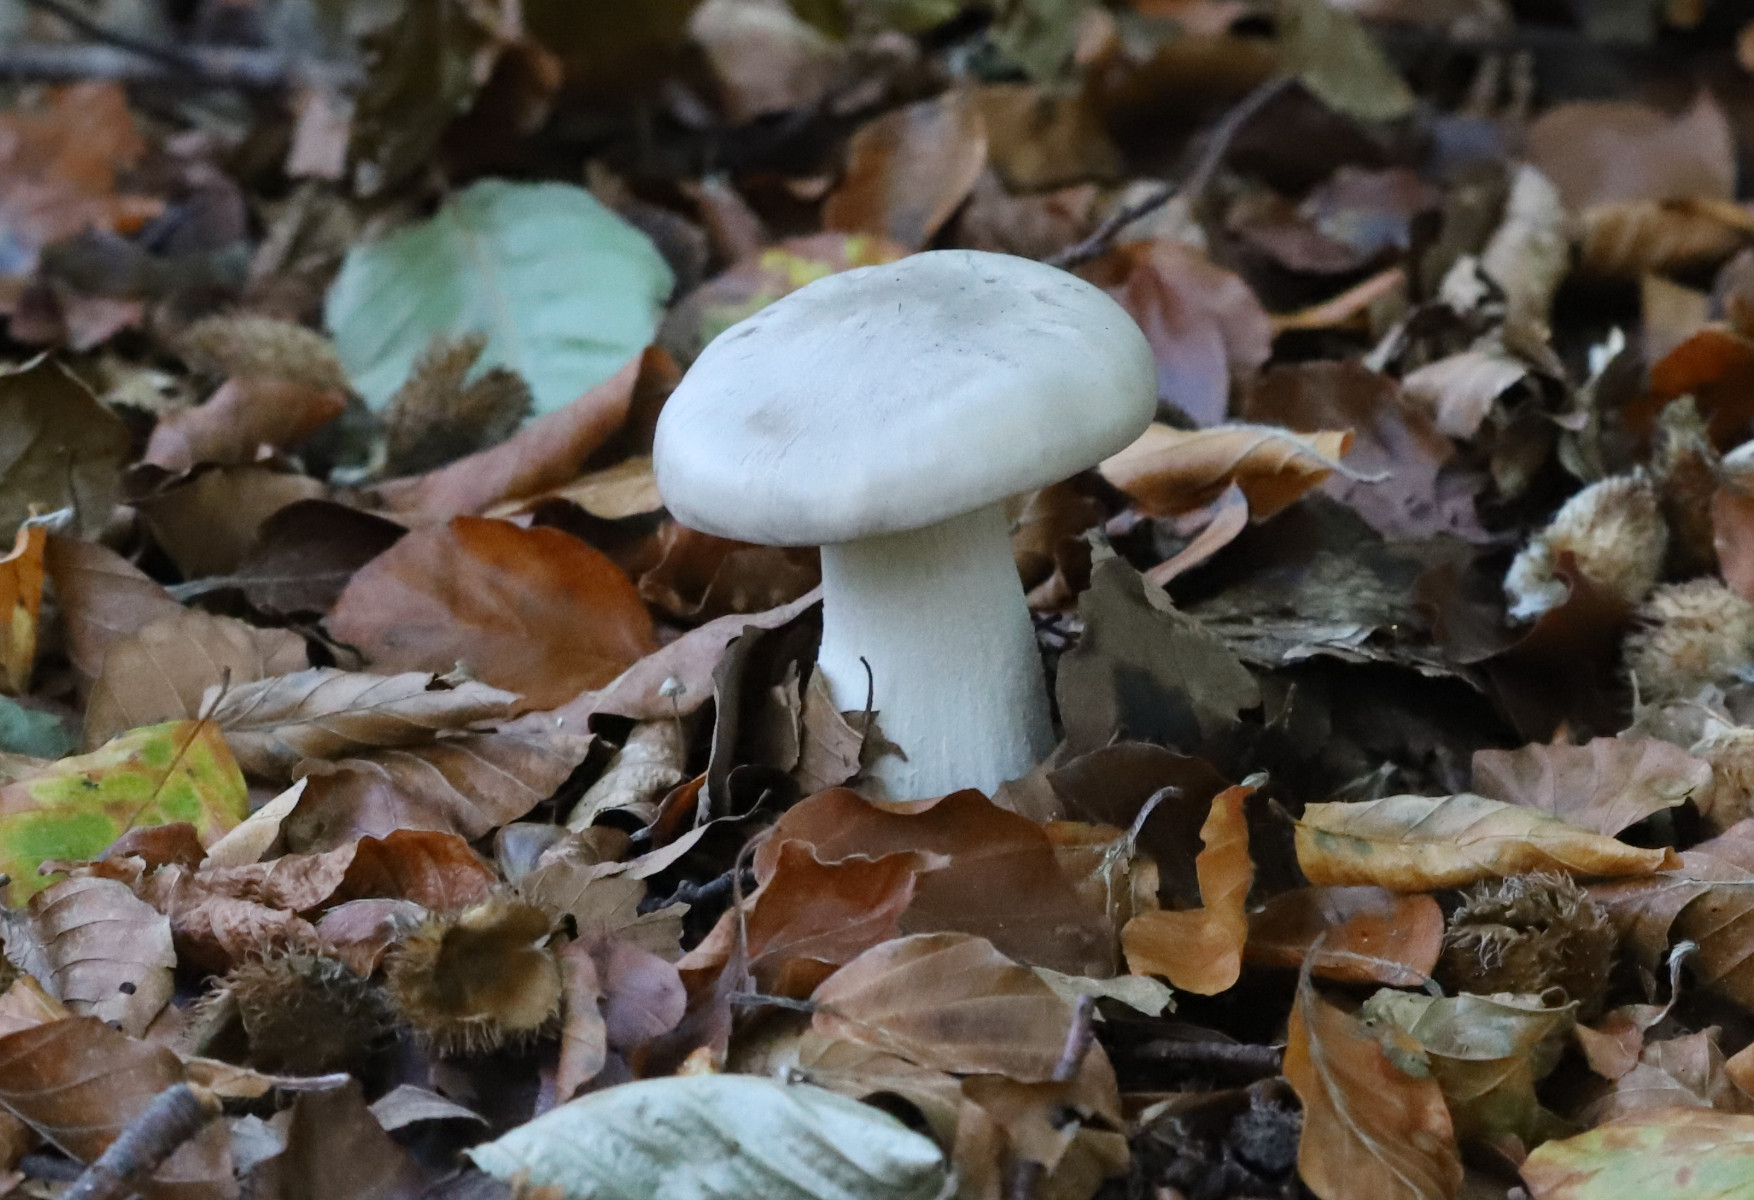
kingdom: Fungi
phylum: Basidiomycota
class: Agaricomycetes
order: Agaricales
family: Tricholomataceae
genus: Clitocybe
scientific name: Clitocybe nebularis
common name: tåge-tragthat
